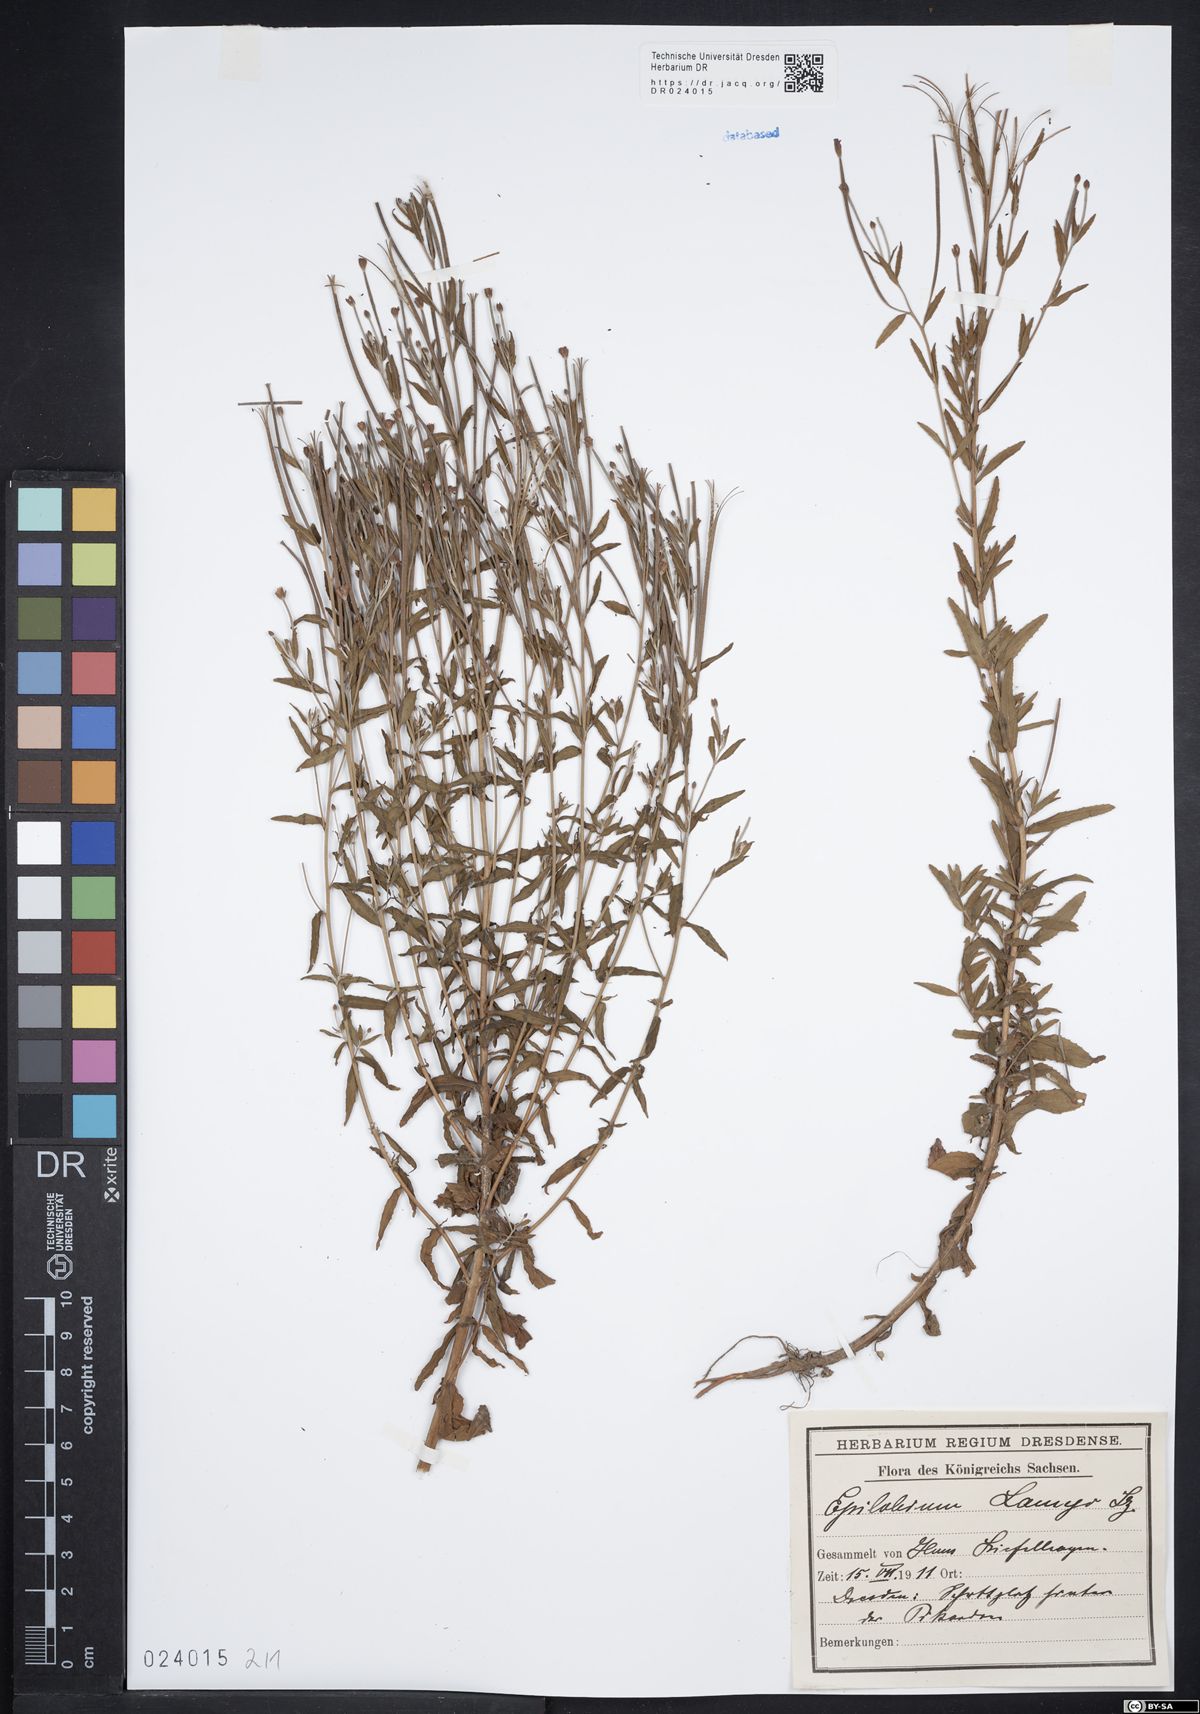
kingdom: Plantae
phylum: Tracheophyta
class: Magnoliopsida
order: Myrtales
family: Onagraceae
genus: Epilobium
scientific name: Epilobium lamyi
